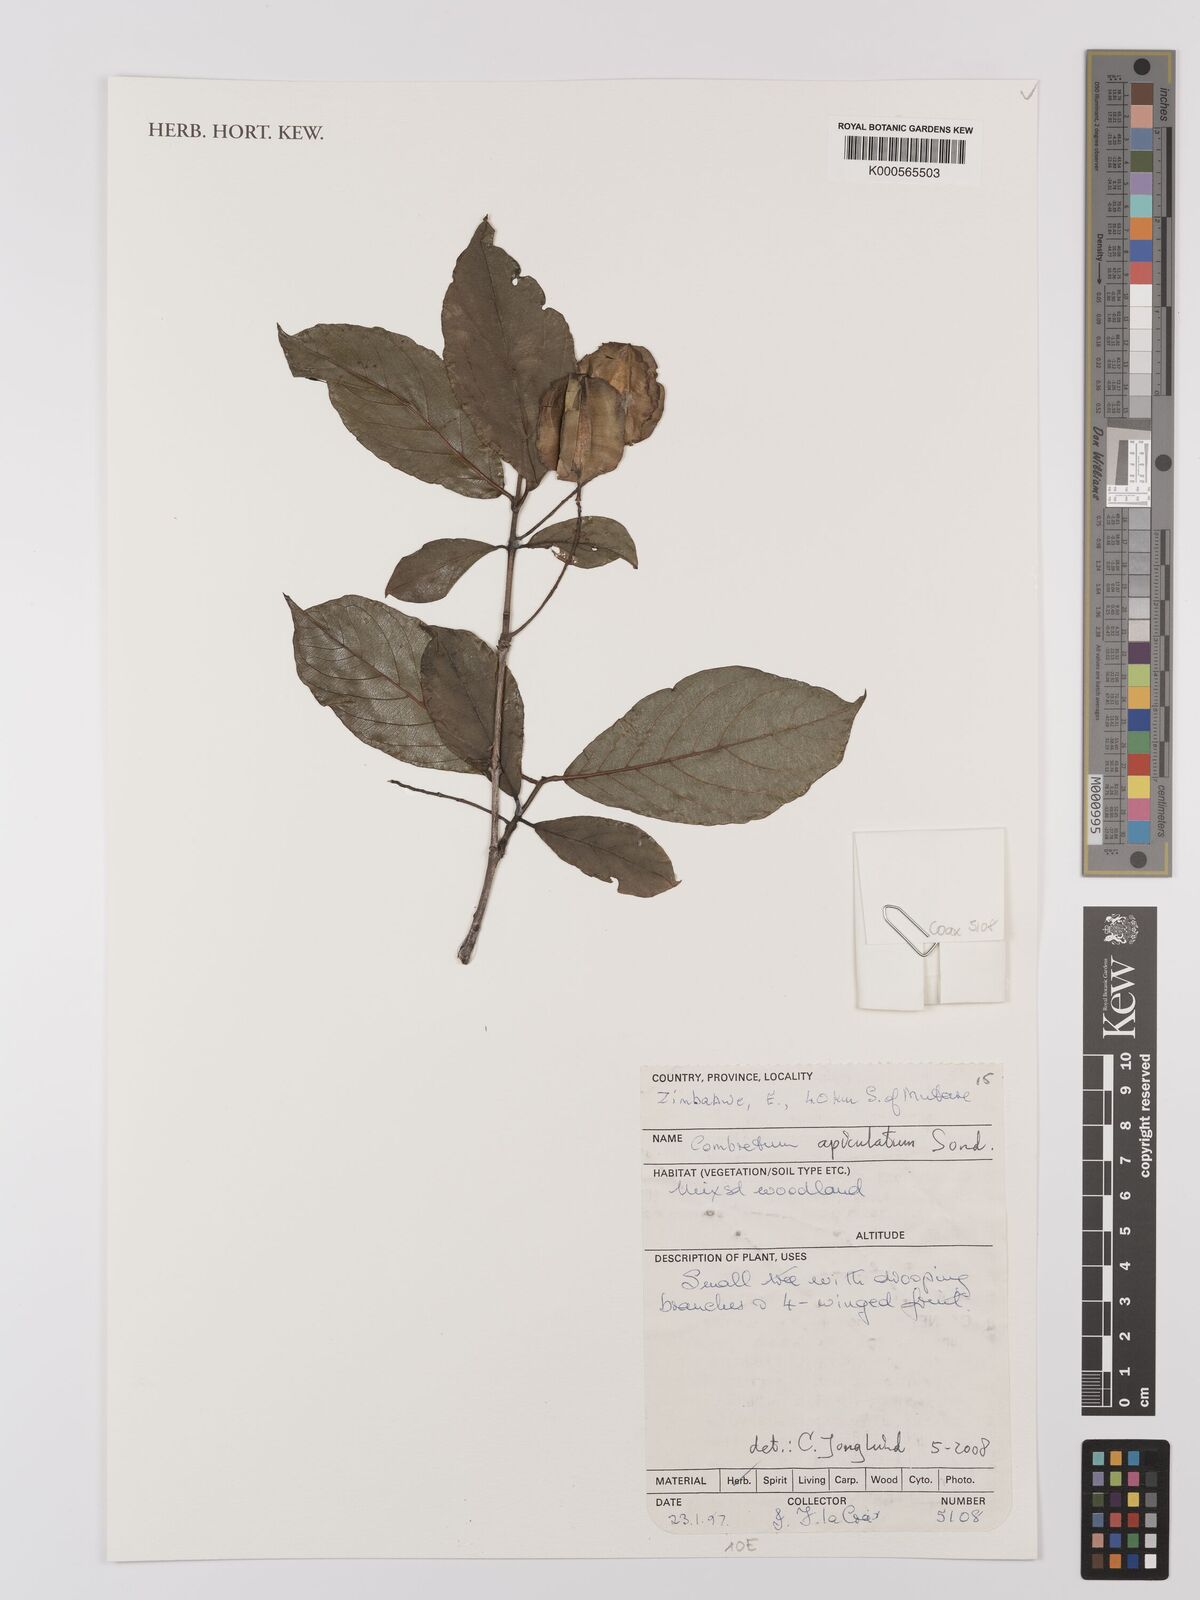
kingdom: Plantae
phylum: Tracheophyta
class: Magnoliopsida
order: Myrtales
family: Combretaceae
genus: Combretum
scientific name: Combretum apiculatum
